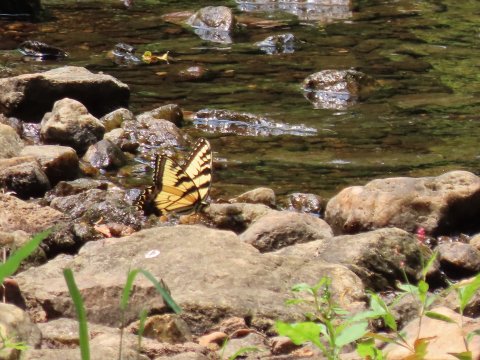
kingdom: Animalia
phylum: Arthropoda
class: Insecta
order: Lepidoptera
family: Papilionidae
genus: Pterourus
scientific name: Pterourus glaucus
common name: Eastern Tiger Swallowtail
